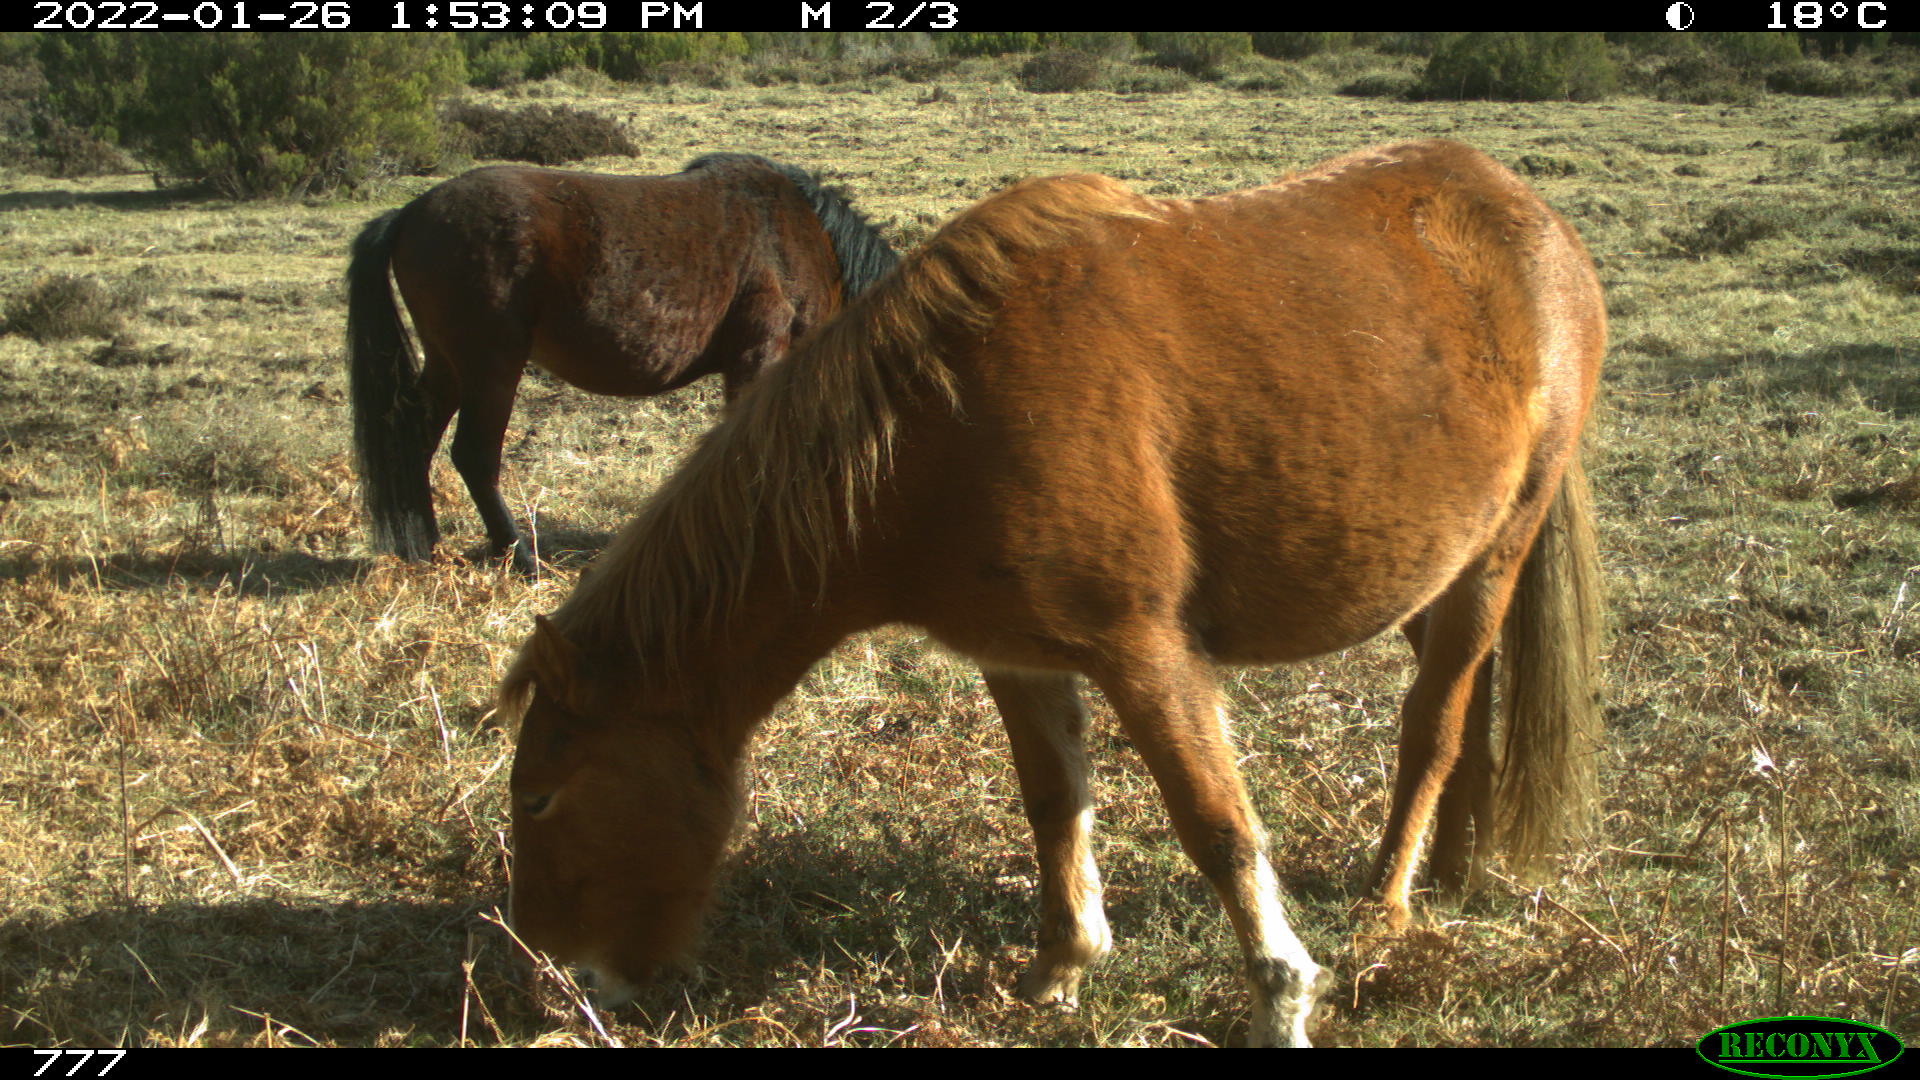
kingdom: Animalia
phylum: Chordata
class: Mammalia
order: Perissodactyla
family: Equidae
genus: Equus
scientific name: Equus caballus
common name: Horse
